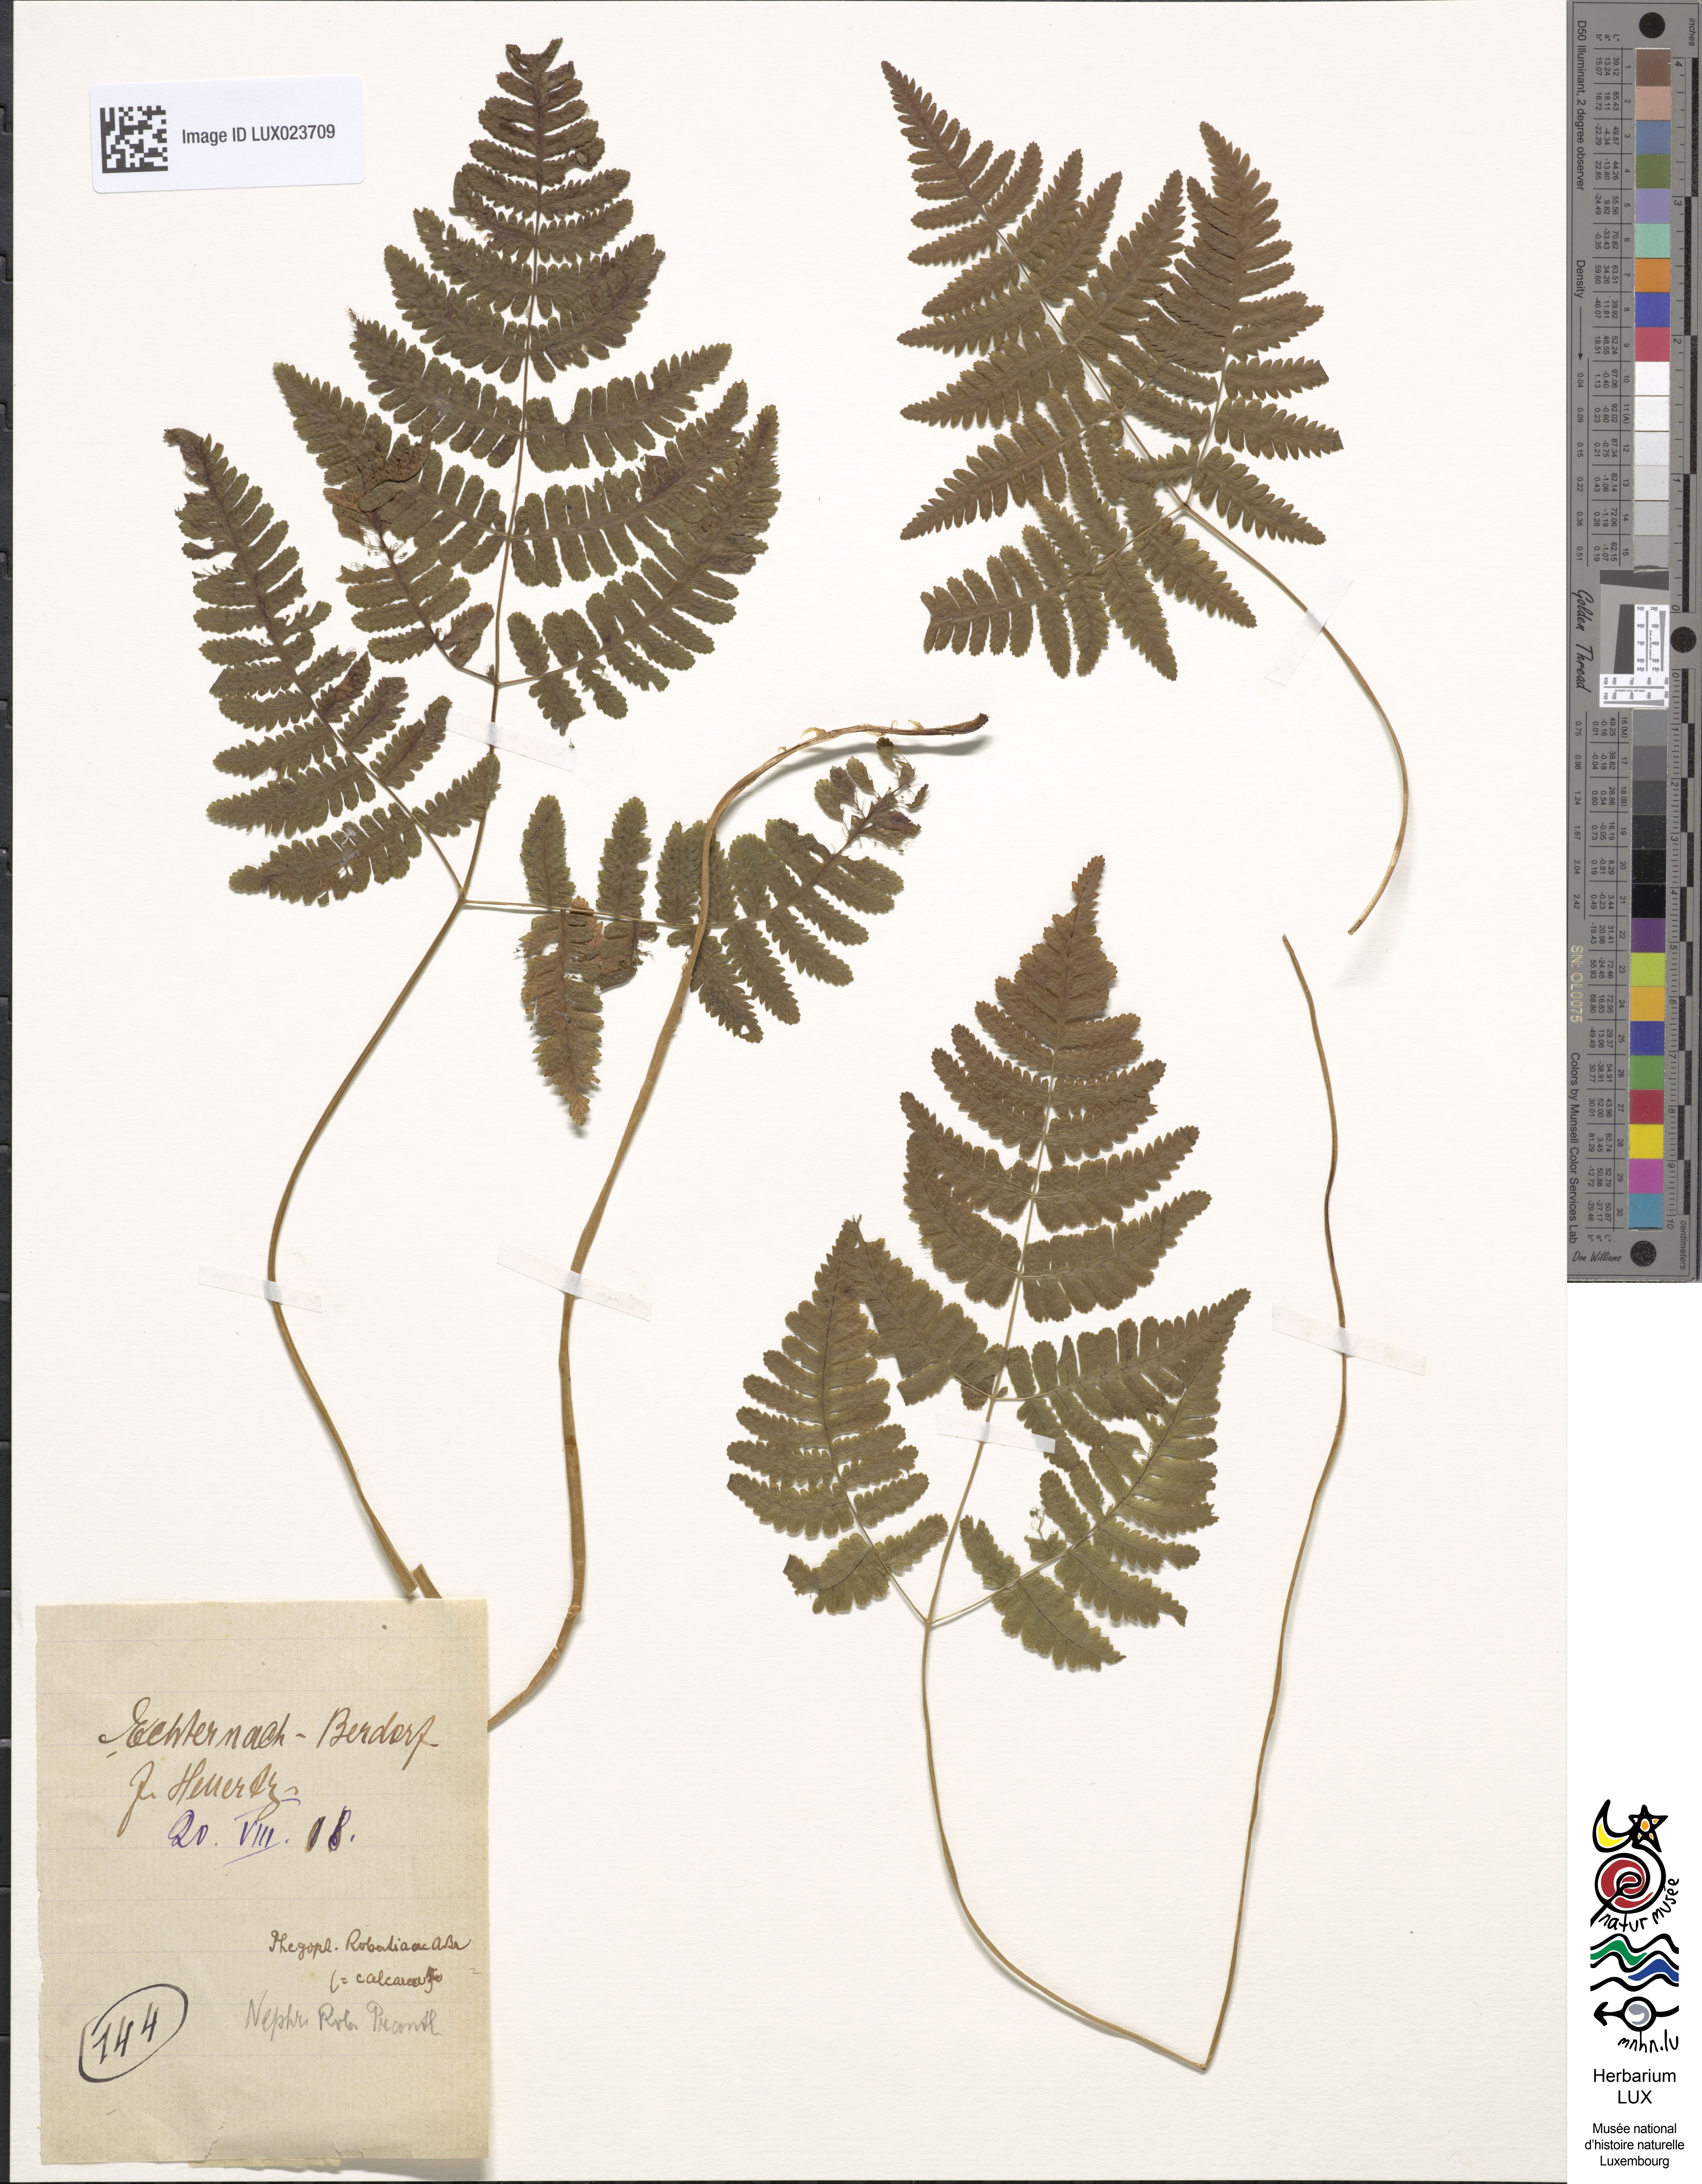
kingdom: Plantae
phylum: Tracheophyta
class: Polypodiopsida
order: Polypodiales
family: Cystopteridaceae
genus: Gymnocarpium
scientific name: Gymnocarpium robertianum
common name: Limestone fern
